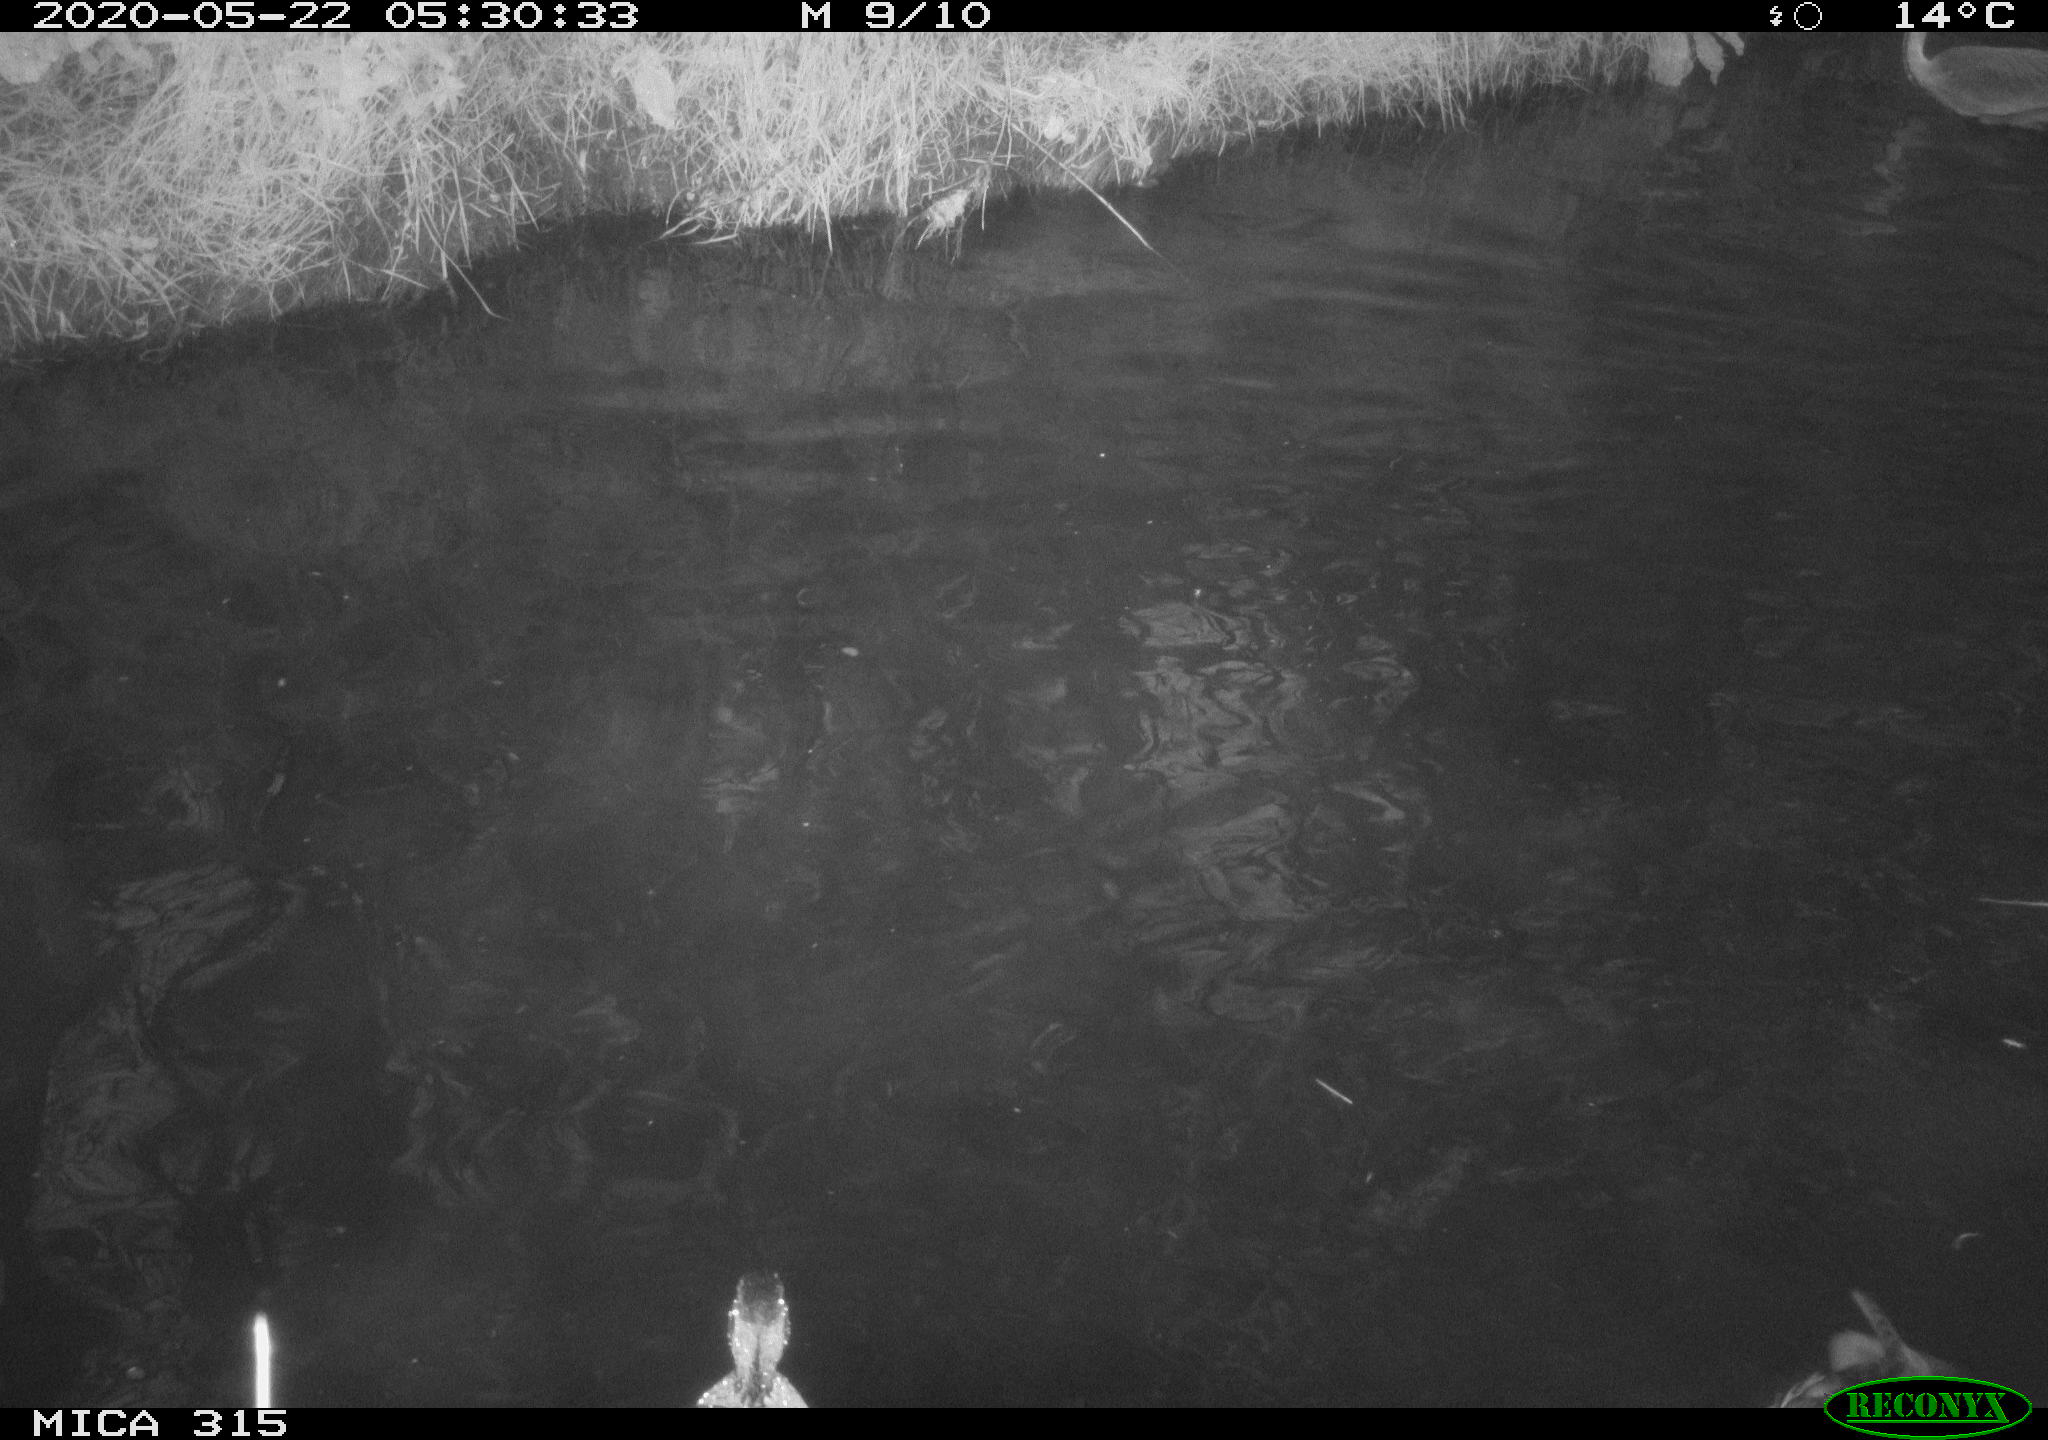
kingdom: Animalia
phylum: Chordata
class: Aves
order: Pelecaniformes
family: Ardeidae
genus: Ardea
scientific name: Ardea cinerea
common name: Grey heron
